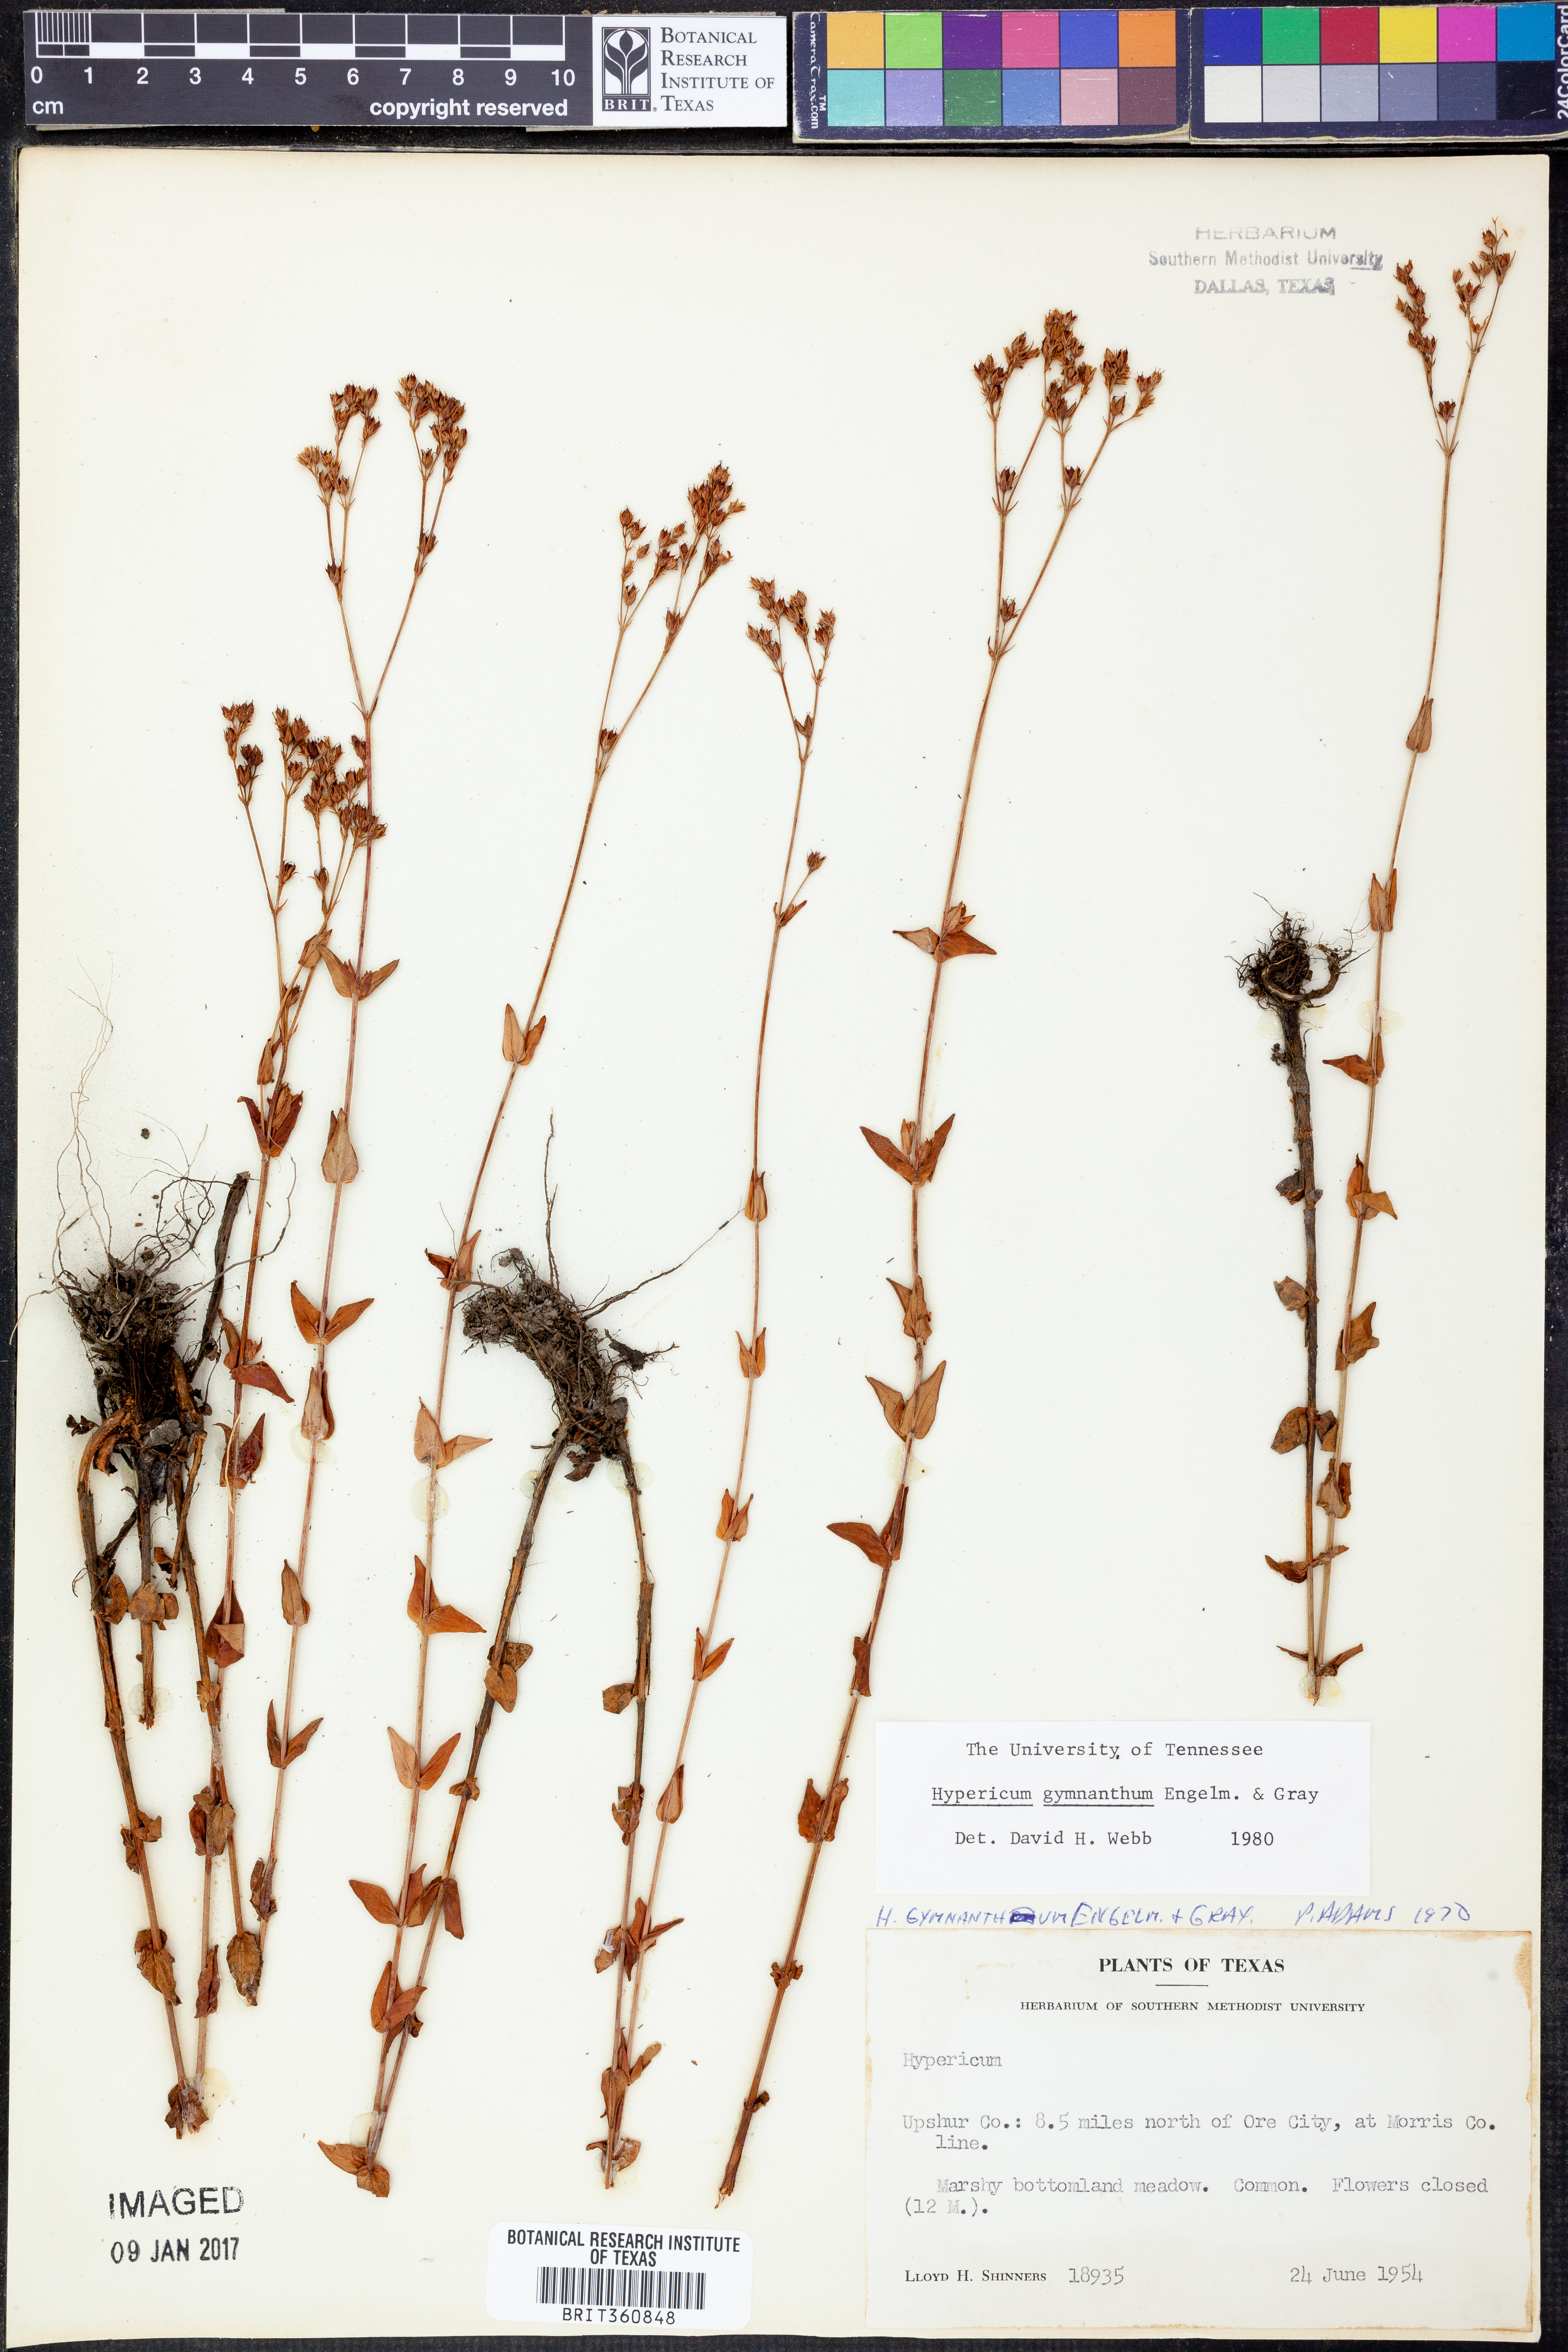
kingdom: Plantae
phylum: Tracheophyta
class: Magnoliopsida
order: Malpighiales
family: Hypericaceae
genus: Hypericum
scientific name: Hypericum gymnanthum
